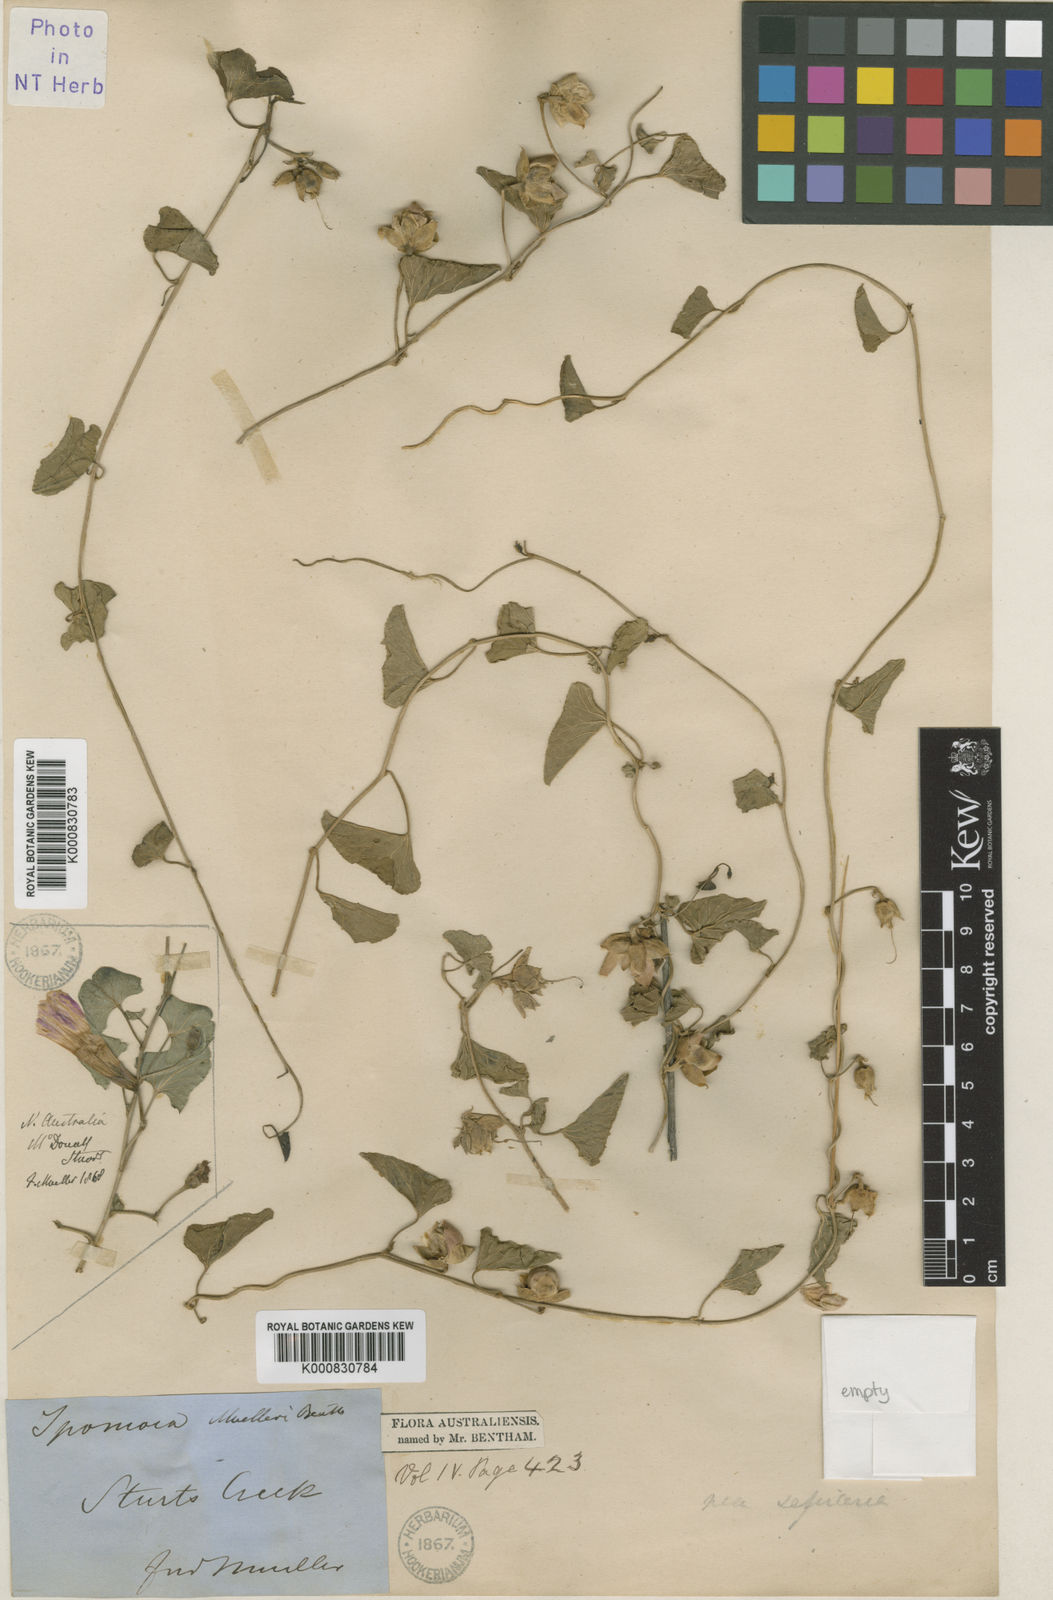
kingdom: Plantae
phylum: Tracheophyta
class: Magnoliopsida
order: Solanales
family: Convolvulaceae
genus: Ipomoea
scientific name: Ipomoea muelleri
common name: Poison morning-glory
